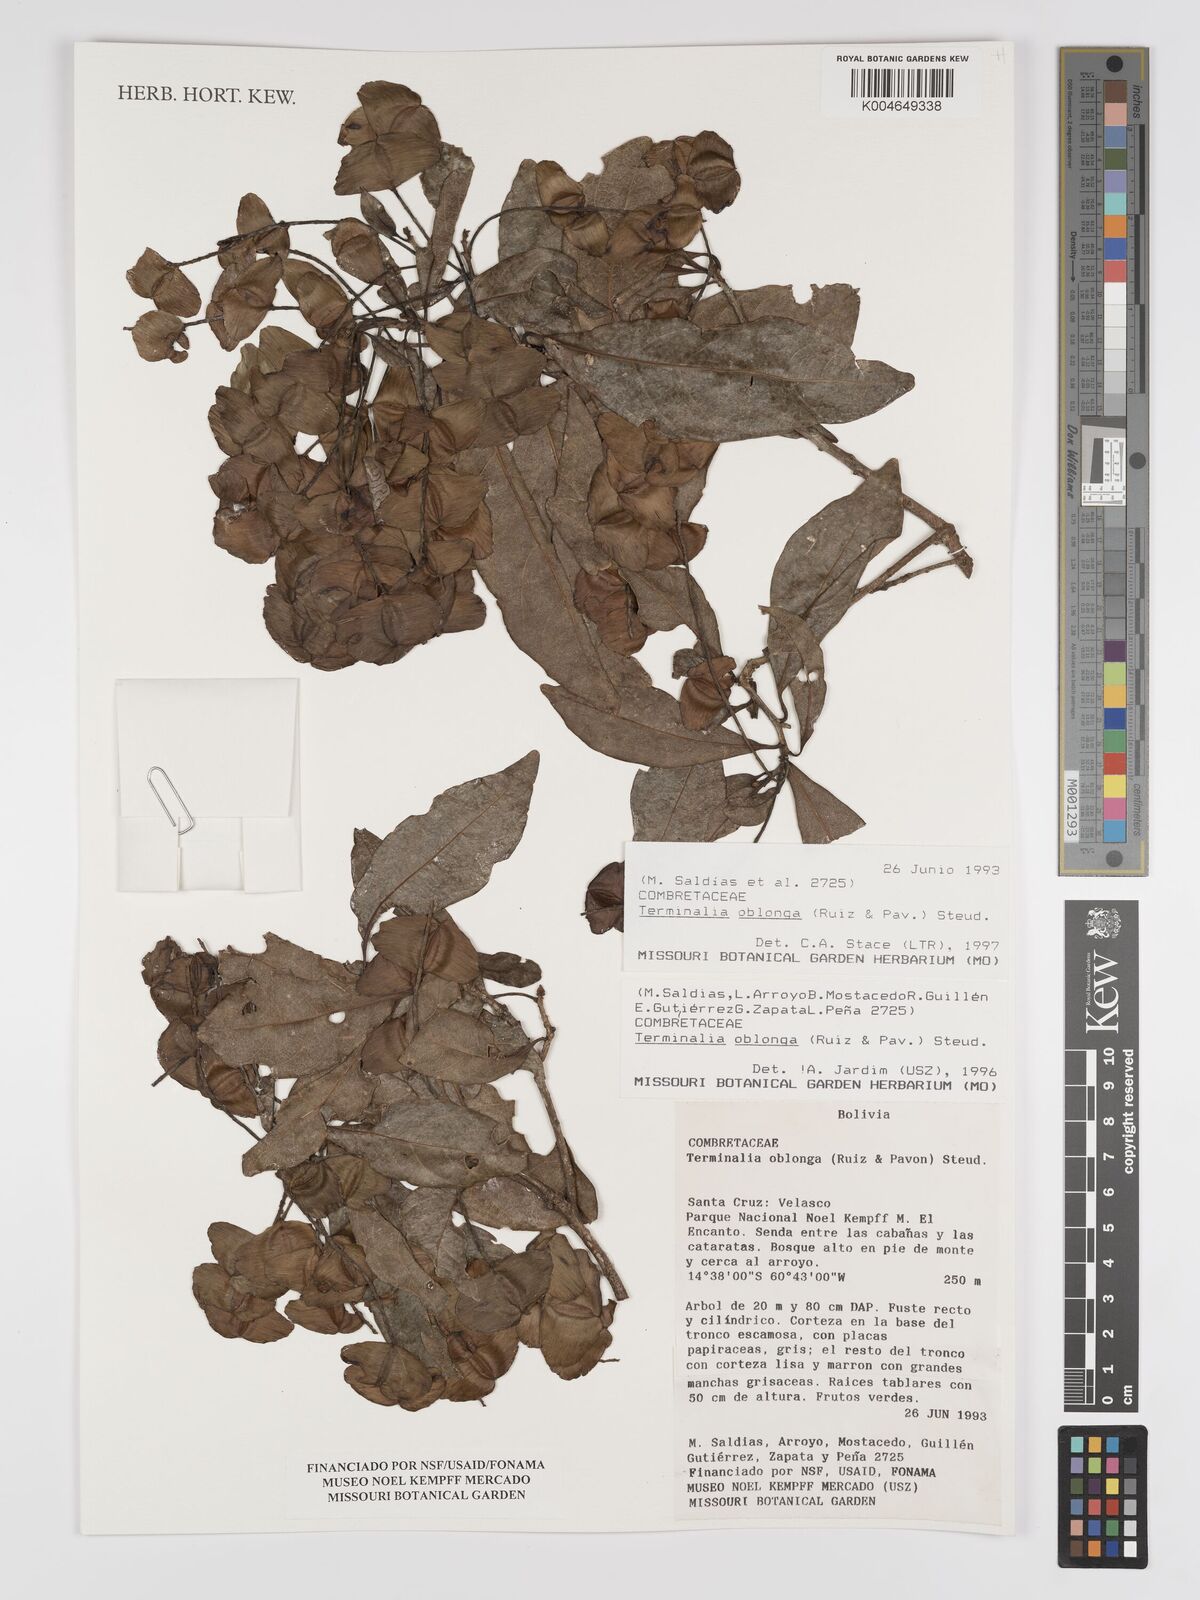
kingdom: Plantae
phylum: Tracheophyta
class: Magnoliopsida
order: Myrtales
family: Combretaceae
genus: Terminalia
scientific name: Terminalia oblonga
